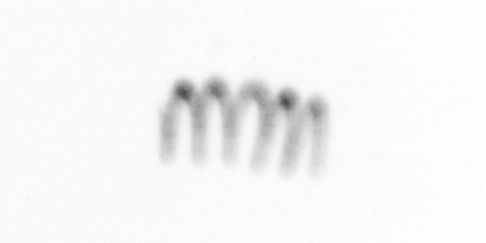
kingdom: Chromista
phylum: Ochrophyta
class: Bacillariophyceae
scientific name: Bacillariophyceae
